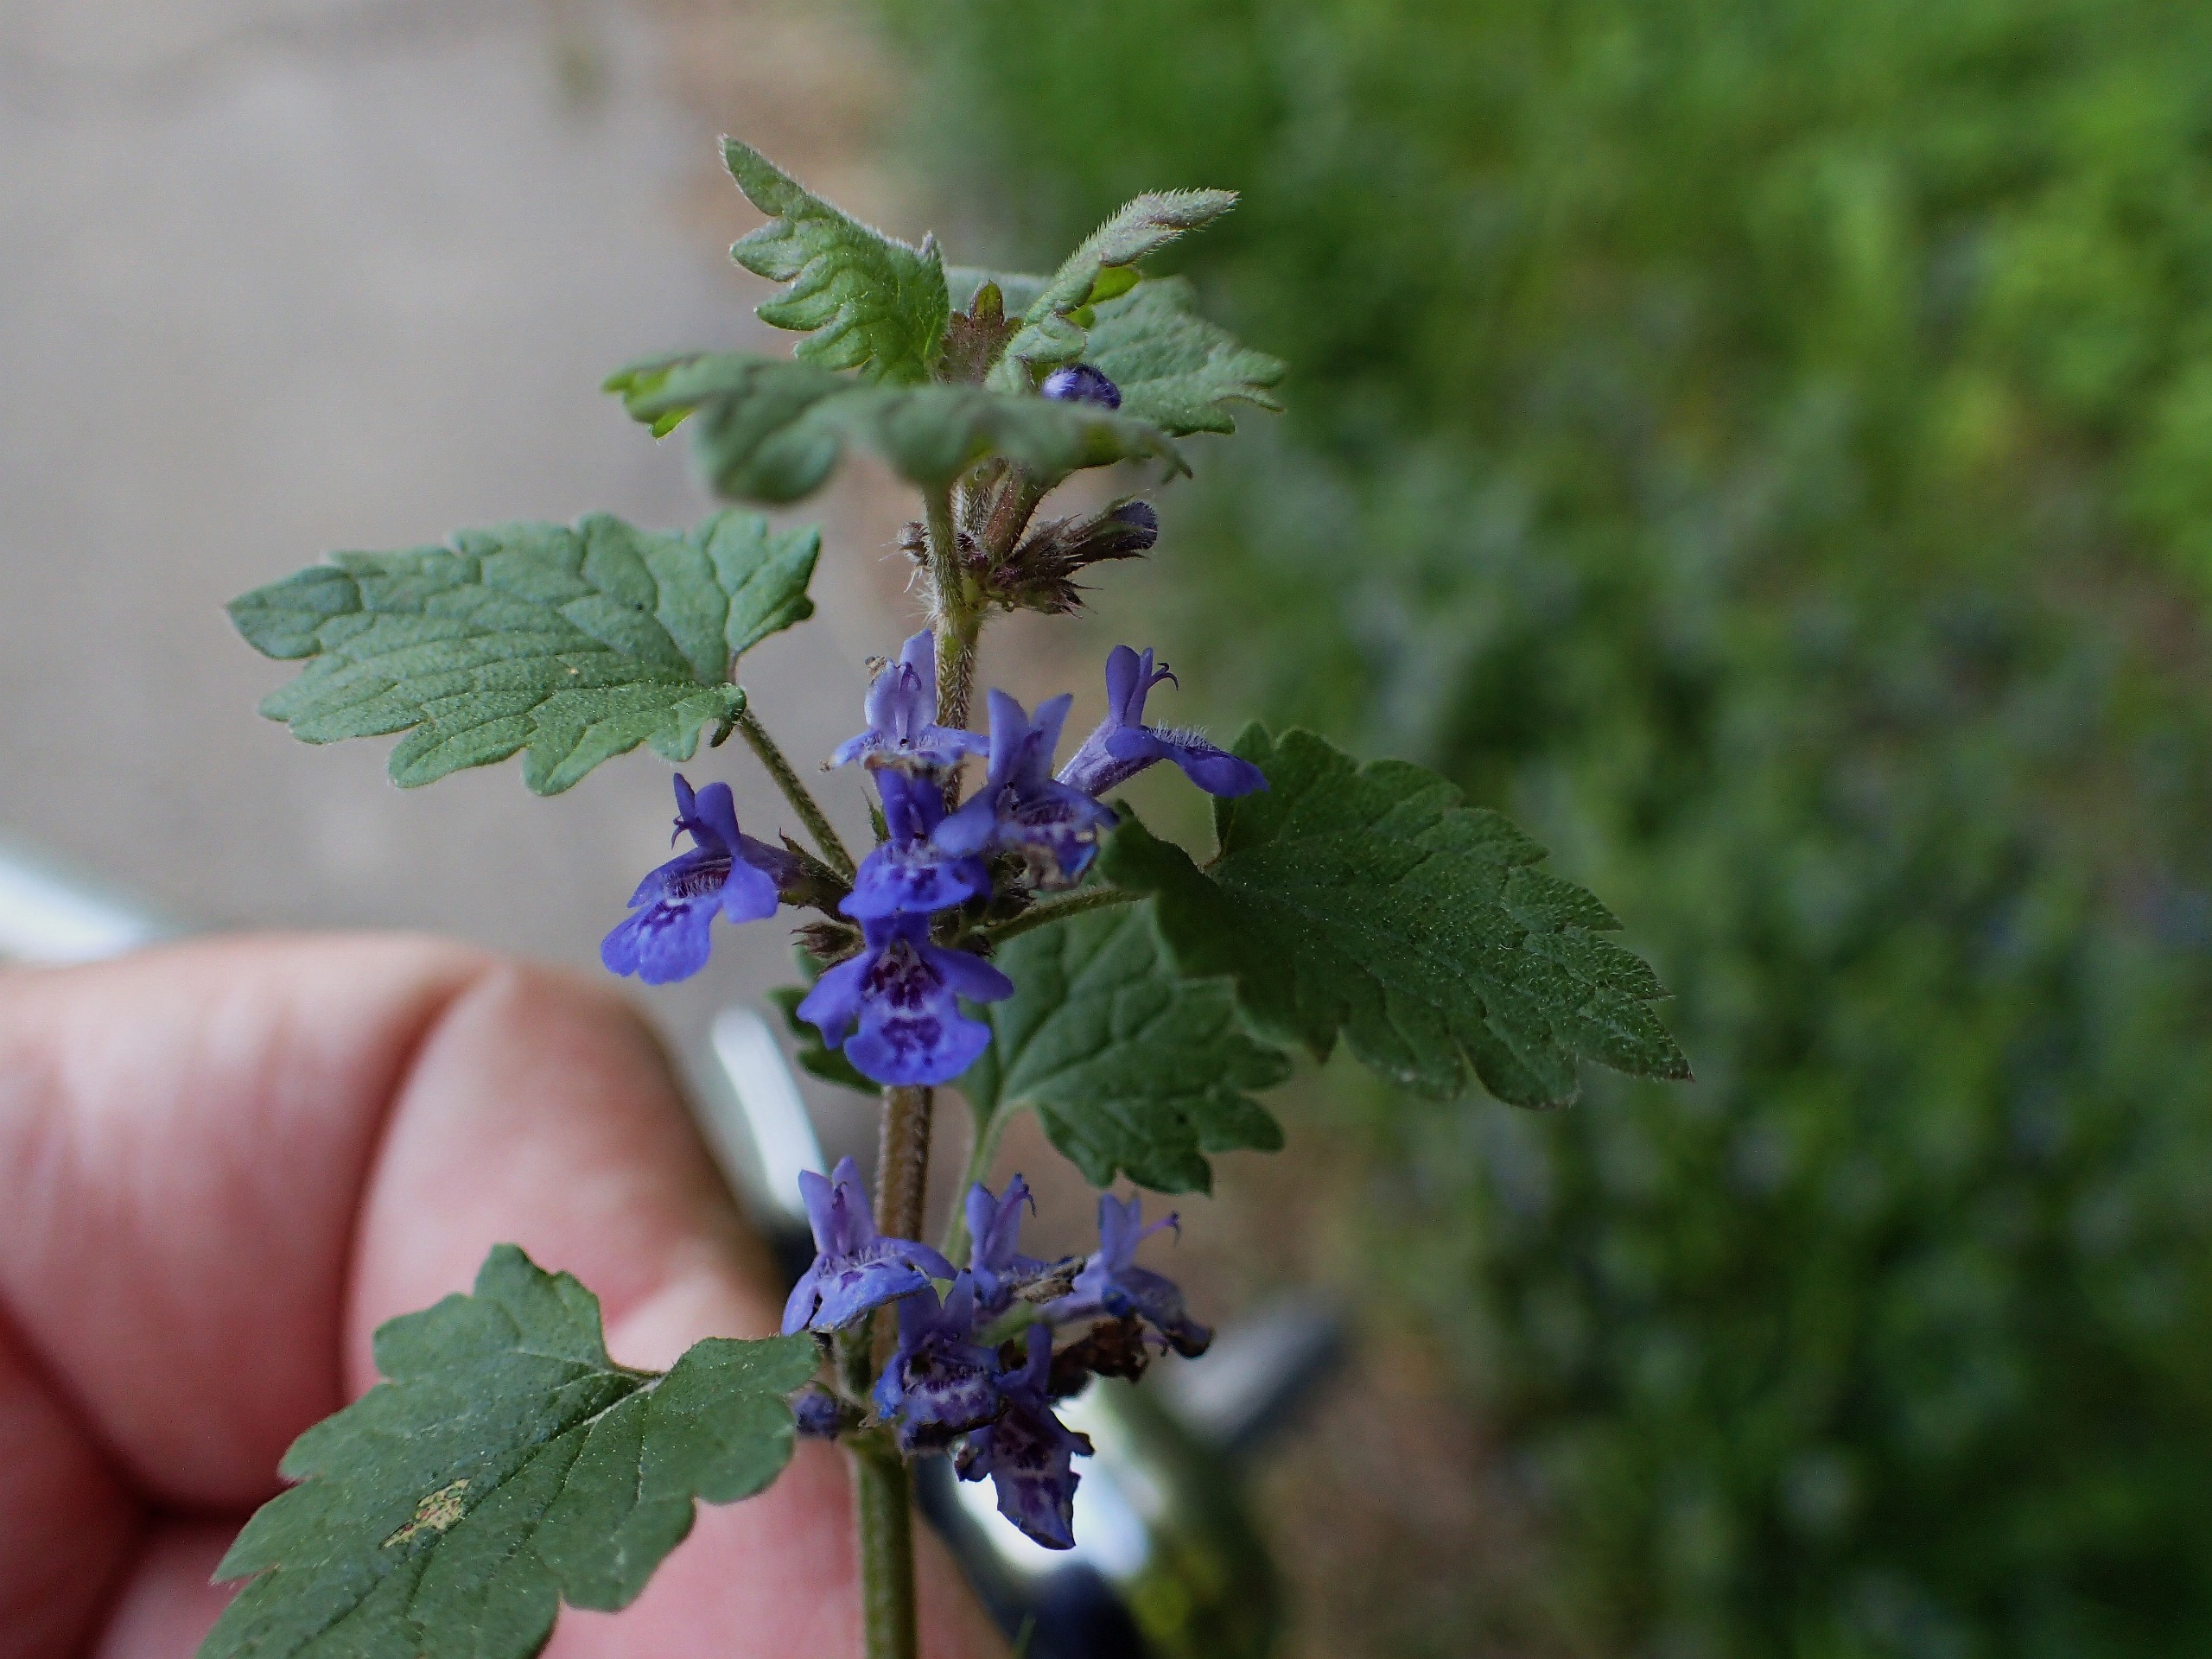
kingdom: Plantae
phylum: Tracheophyta
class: Magnoliopsida
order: Lamiales
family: Lamiaceae
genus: Glechoma
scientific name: Glechoma hederacea
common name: Korsknap
